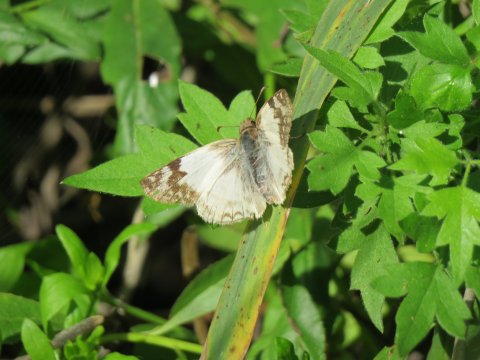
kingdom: Animalia
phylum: Arthropoda
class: Insecta
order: Lepidoptera
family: Hesperiidae
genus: Heliopetes
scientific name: Heliopetes laviana
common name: Laviana White-Skipper
